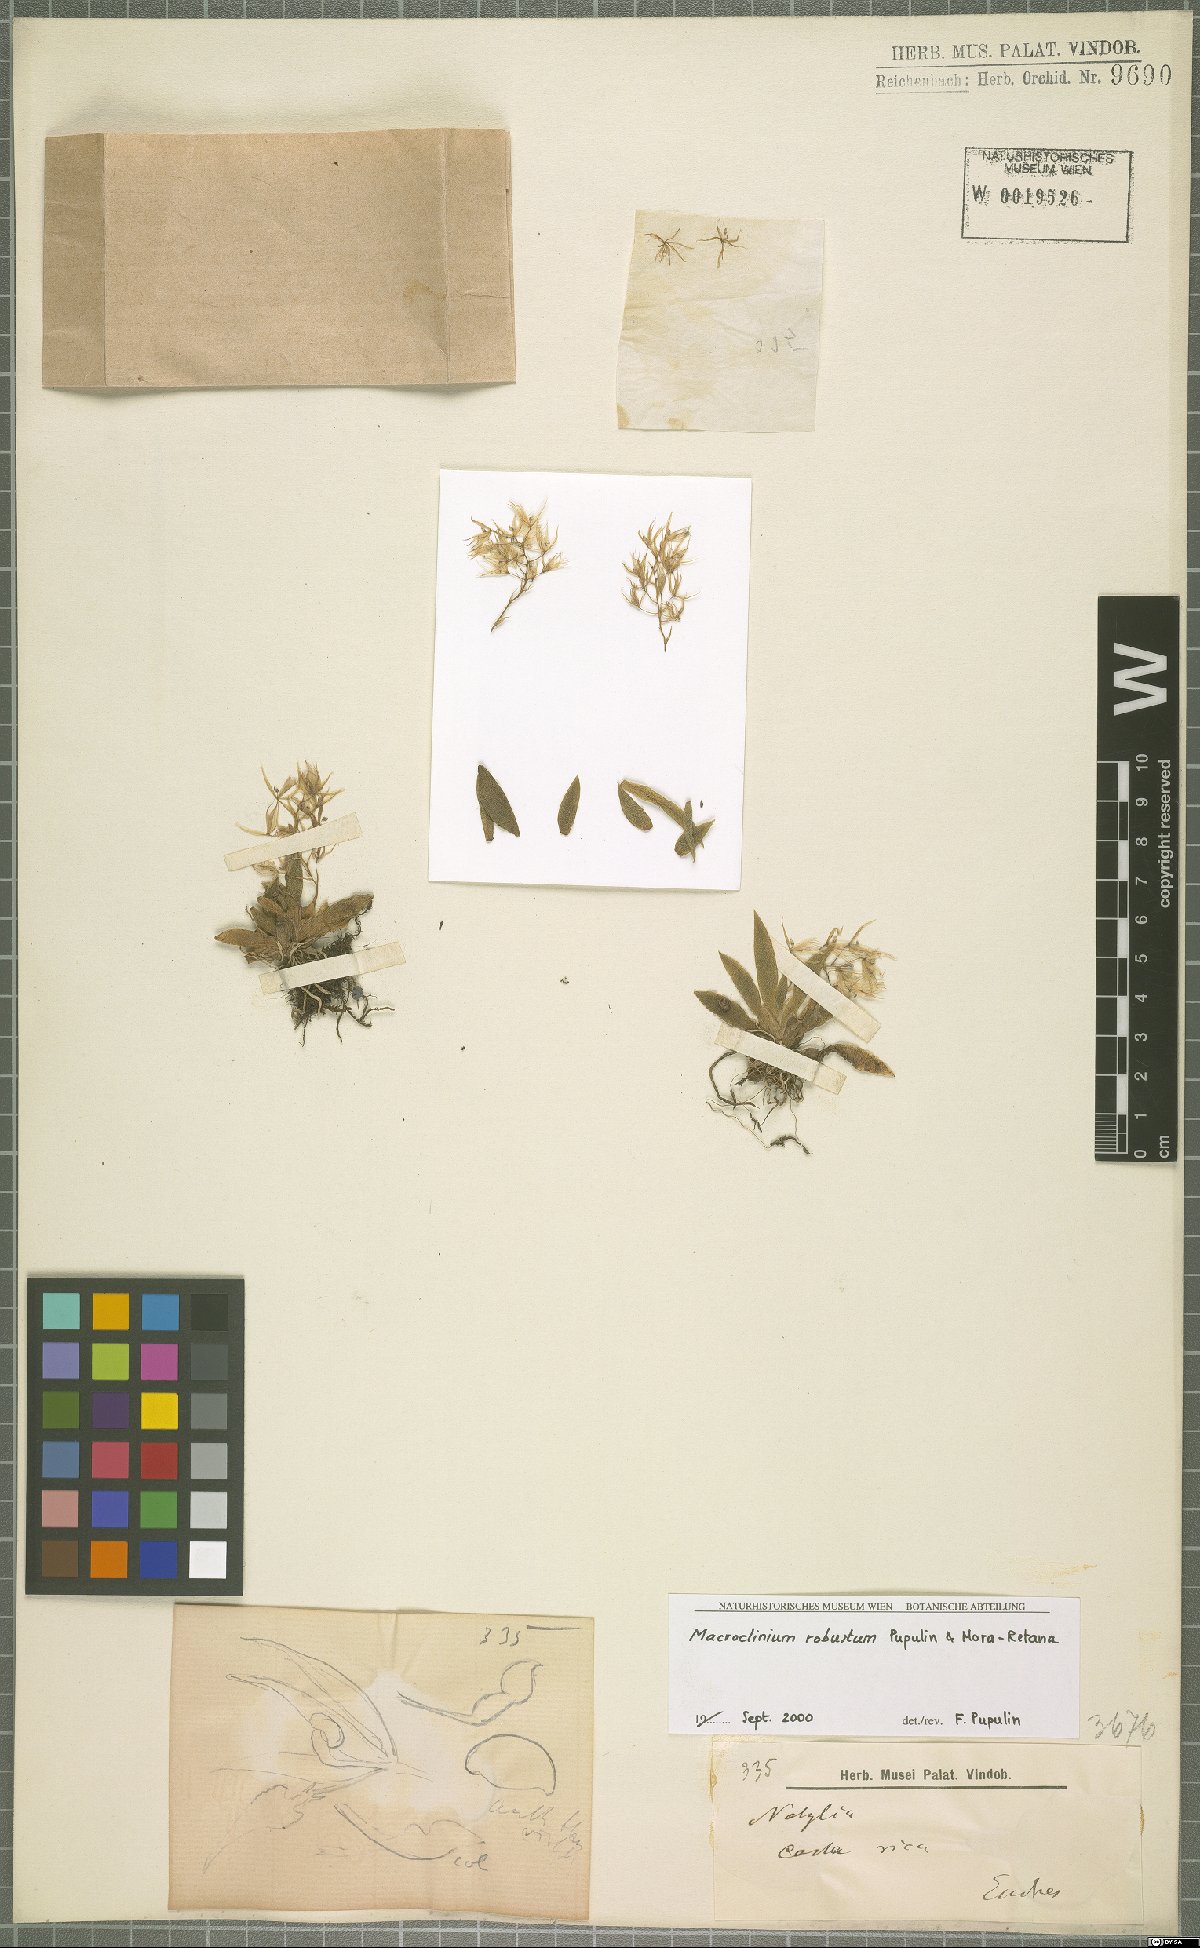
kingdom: Plantae
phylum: Tracheophyta
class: Liliopsida
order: Asparagales
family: Orchidaceae
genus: Macroclinium
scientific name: Macroclinium robustum
